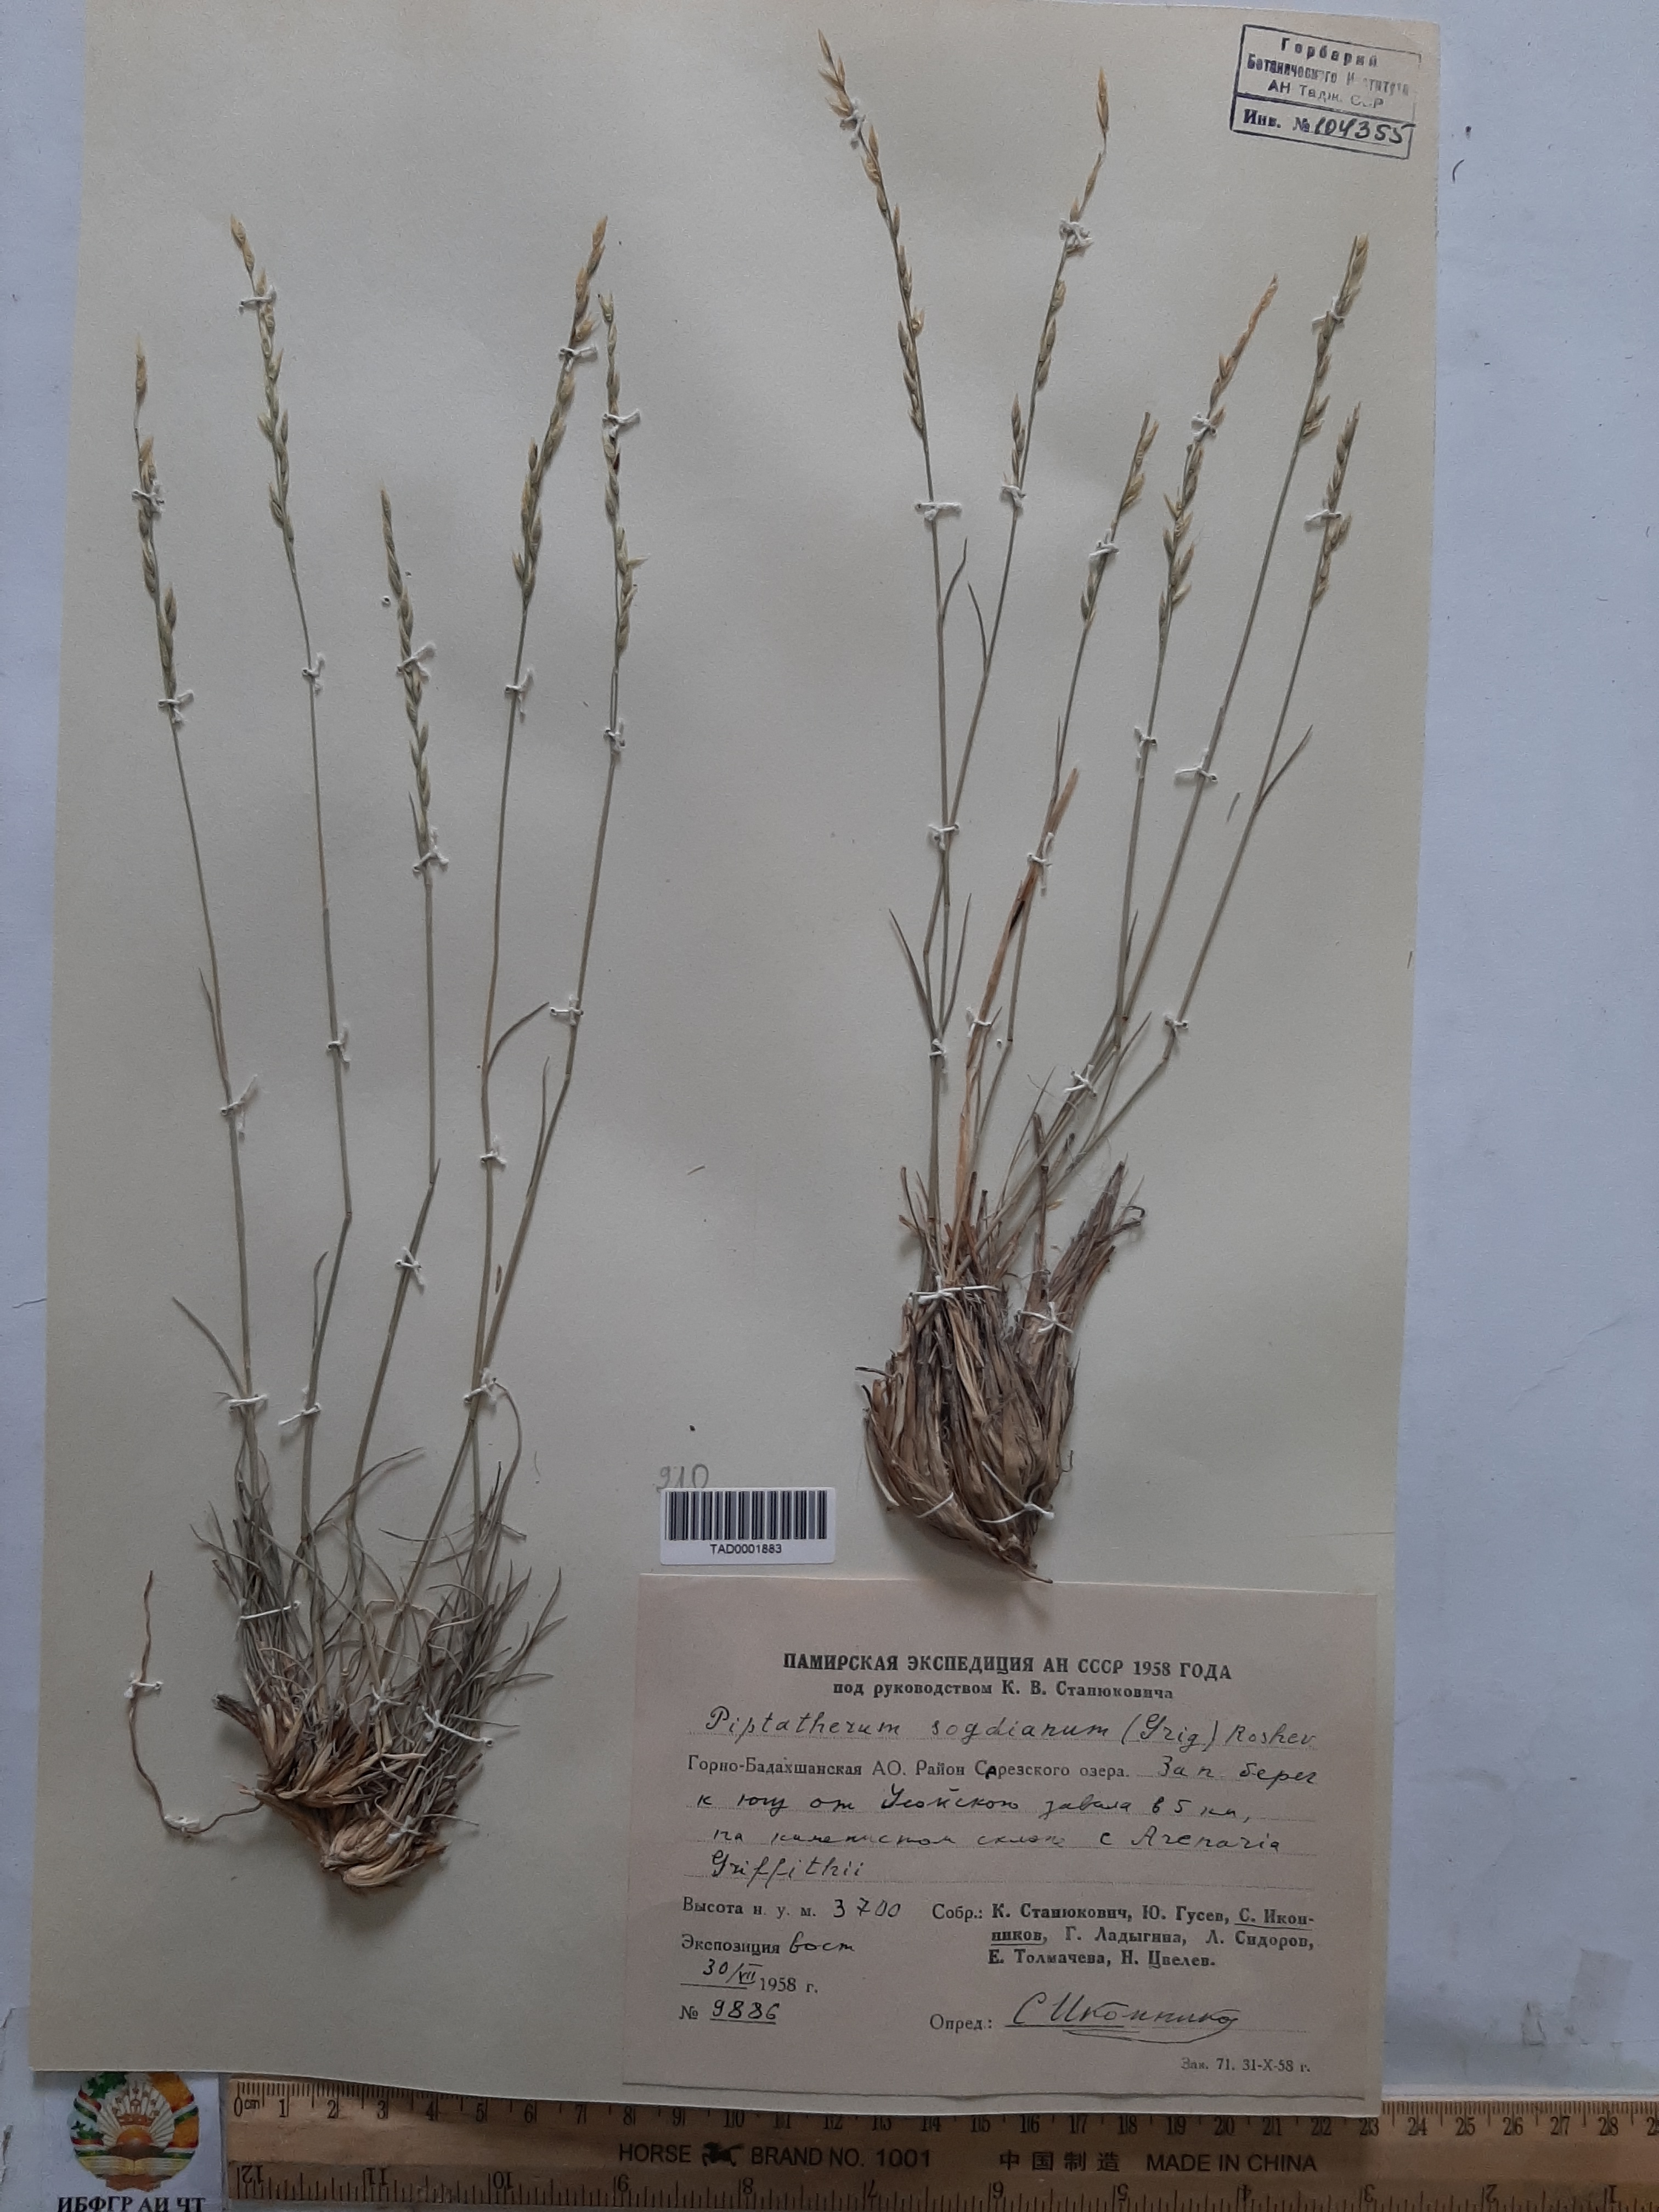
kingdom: Plantae
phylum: Tracheophyta
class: Liliopsida
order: Poales
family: Poaceae
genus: Piptatherum
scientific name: Piptatherum sogdianum
